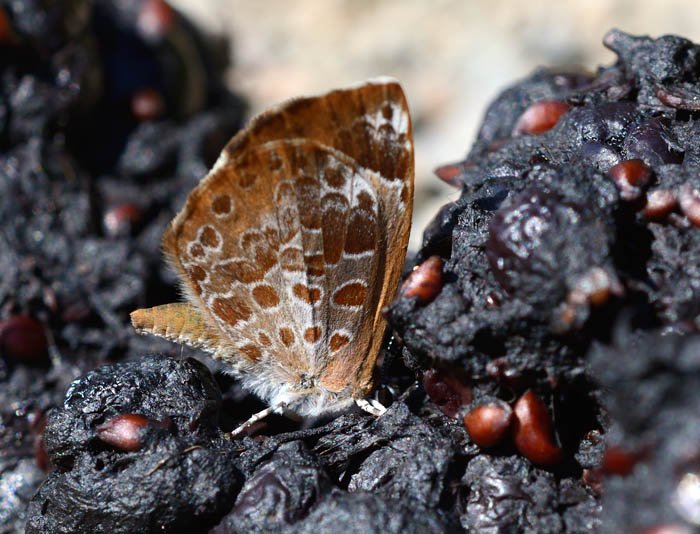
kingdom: Animalia
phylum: Arthropoda
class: Insecta
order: Lepidoptera
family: Lycaenidae
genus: Feniseca
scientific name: Feniseca tarquinius
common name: Harvester
